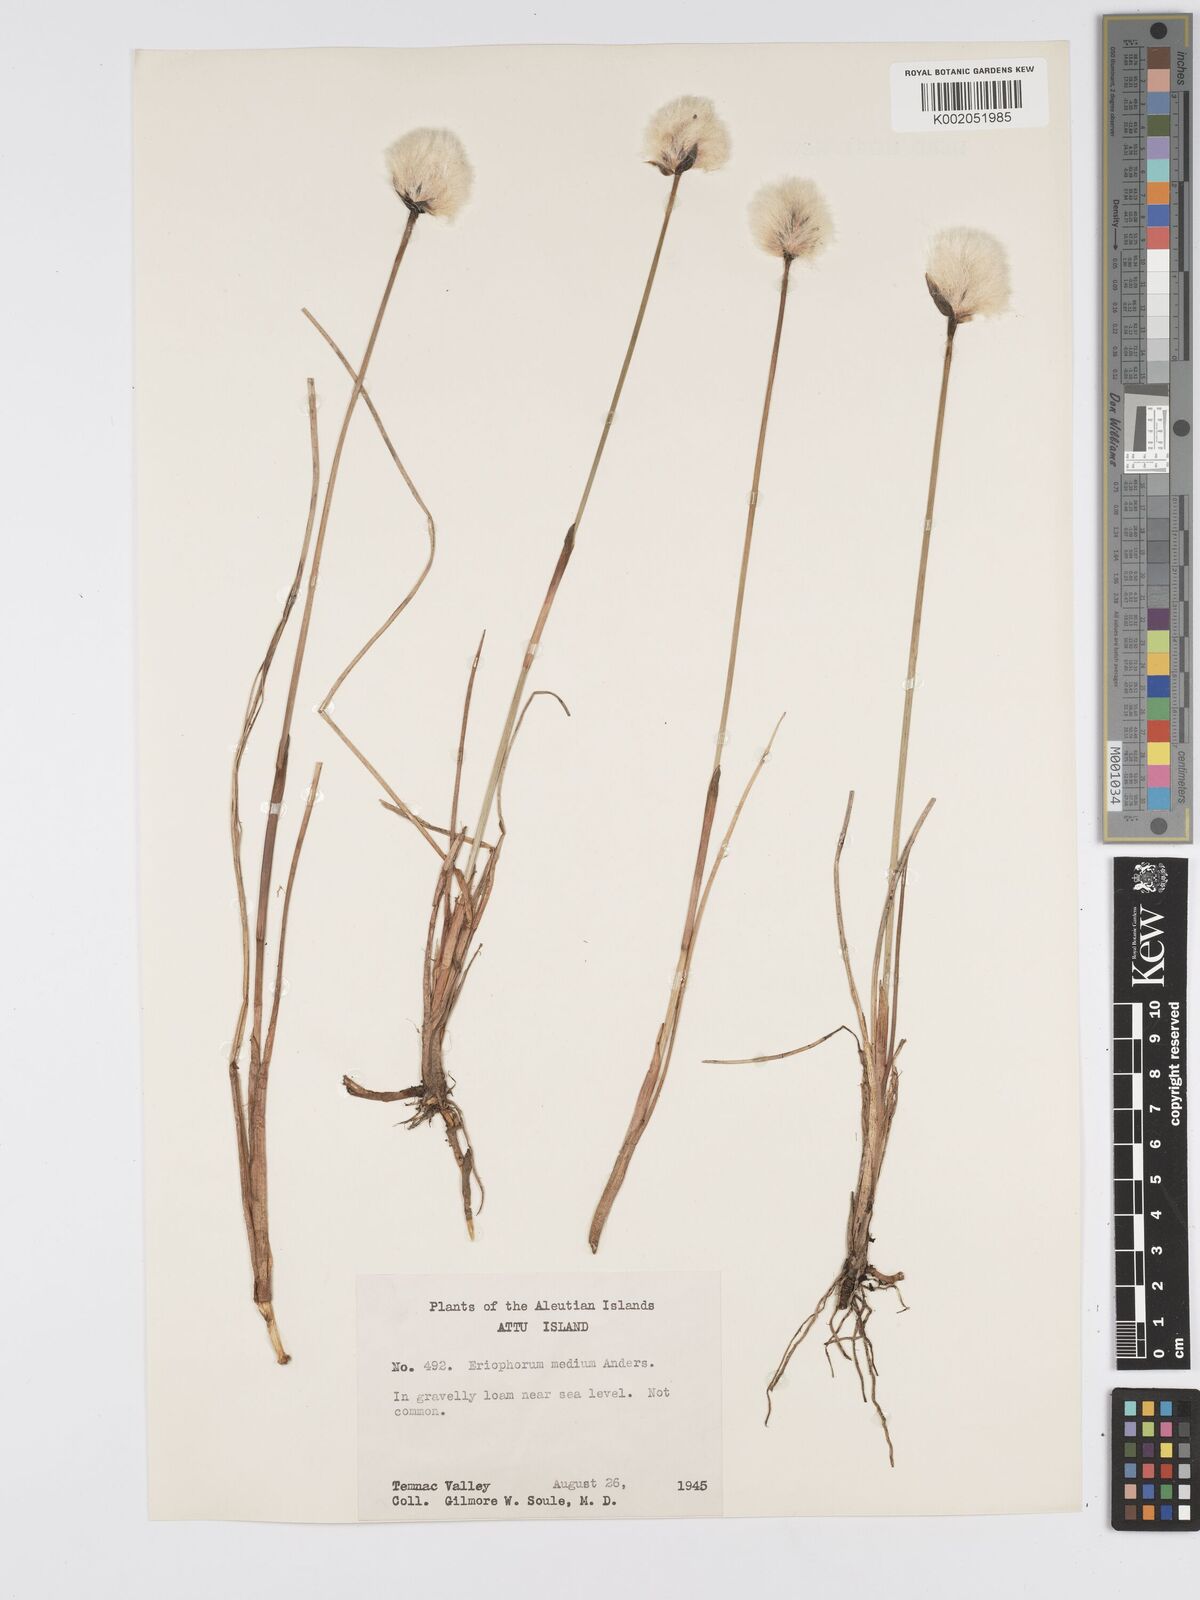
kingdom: Plantae
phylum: Tracheophyta
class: Liliopsida
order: Poales
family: Cyperaceae
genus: Eriophorum
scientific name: Eriophorum callitrix
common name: Arctic cottongrass
